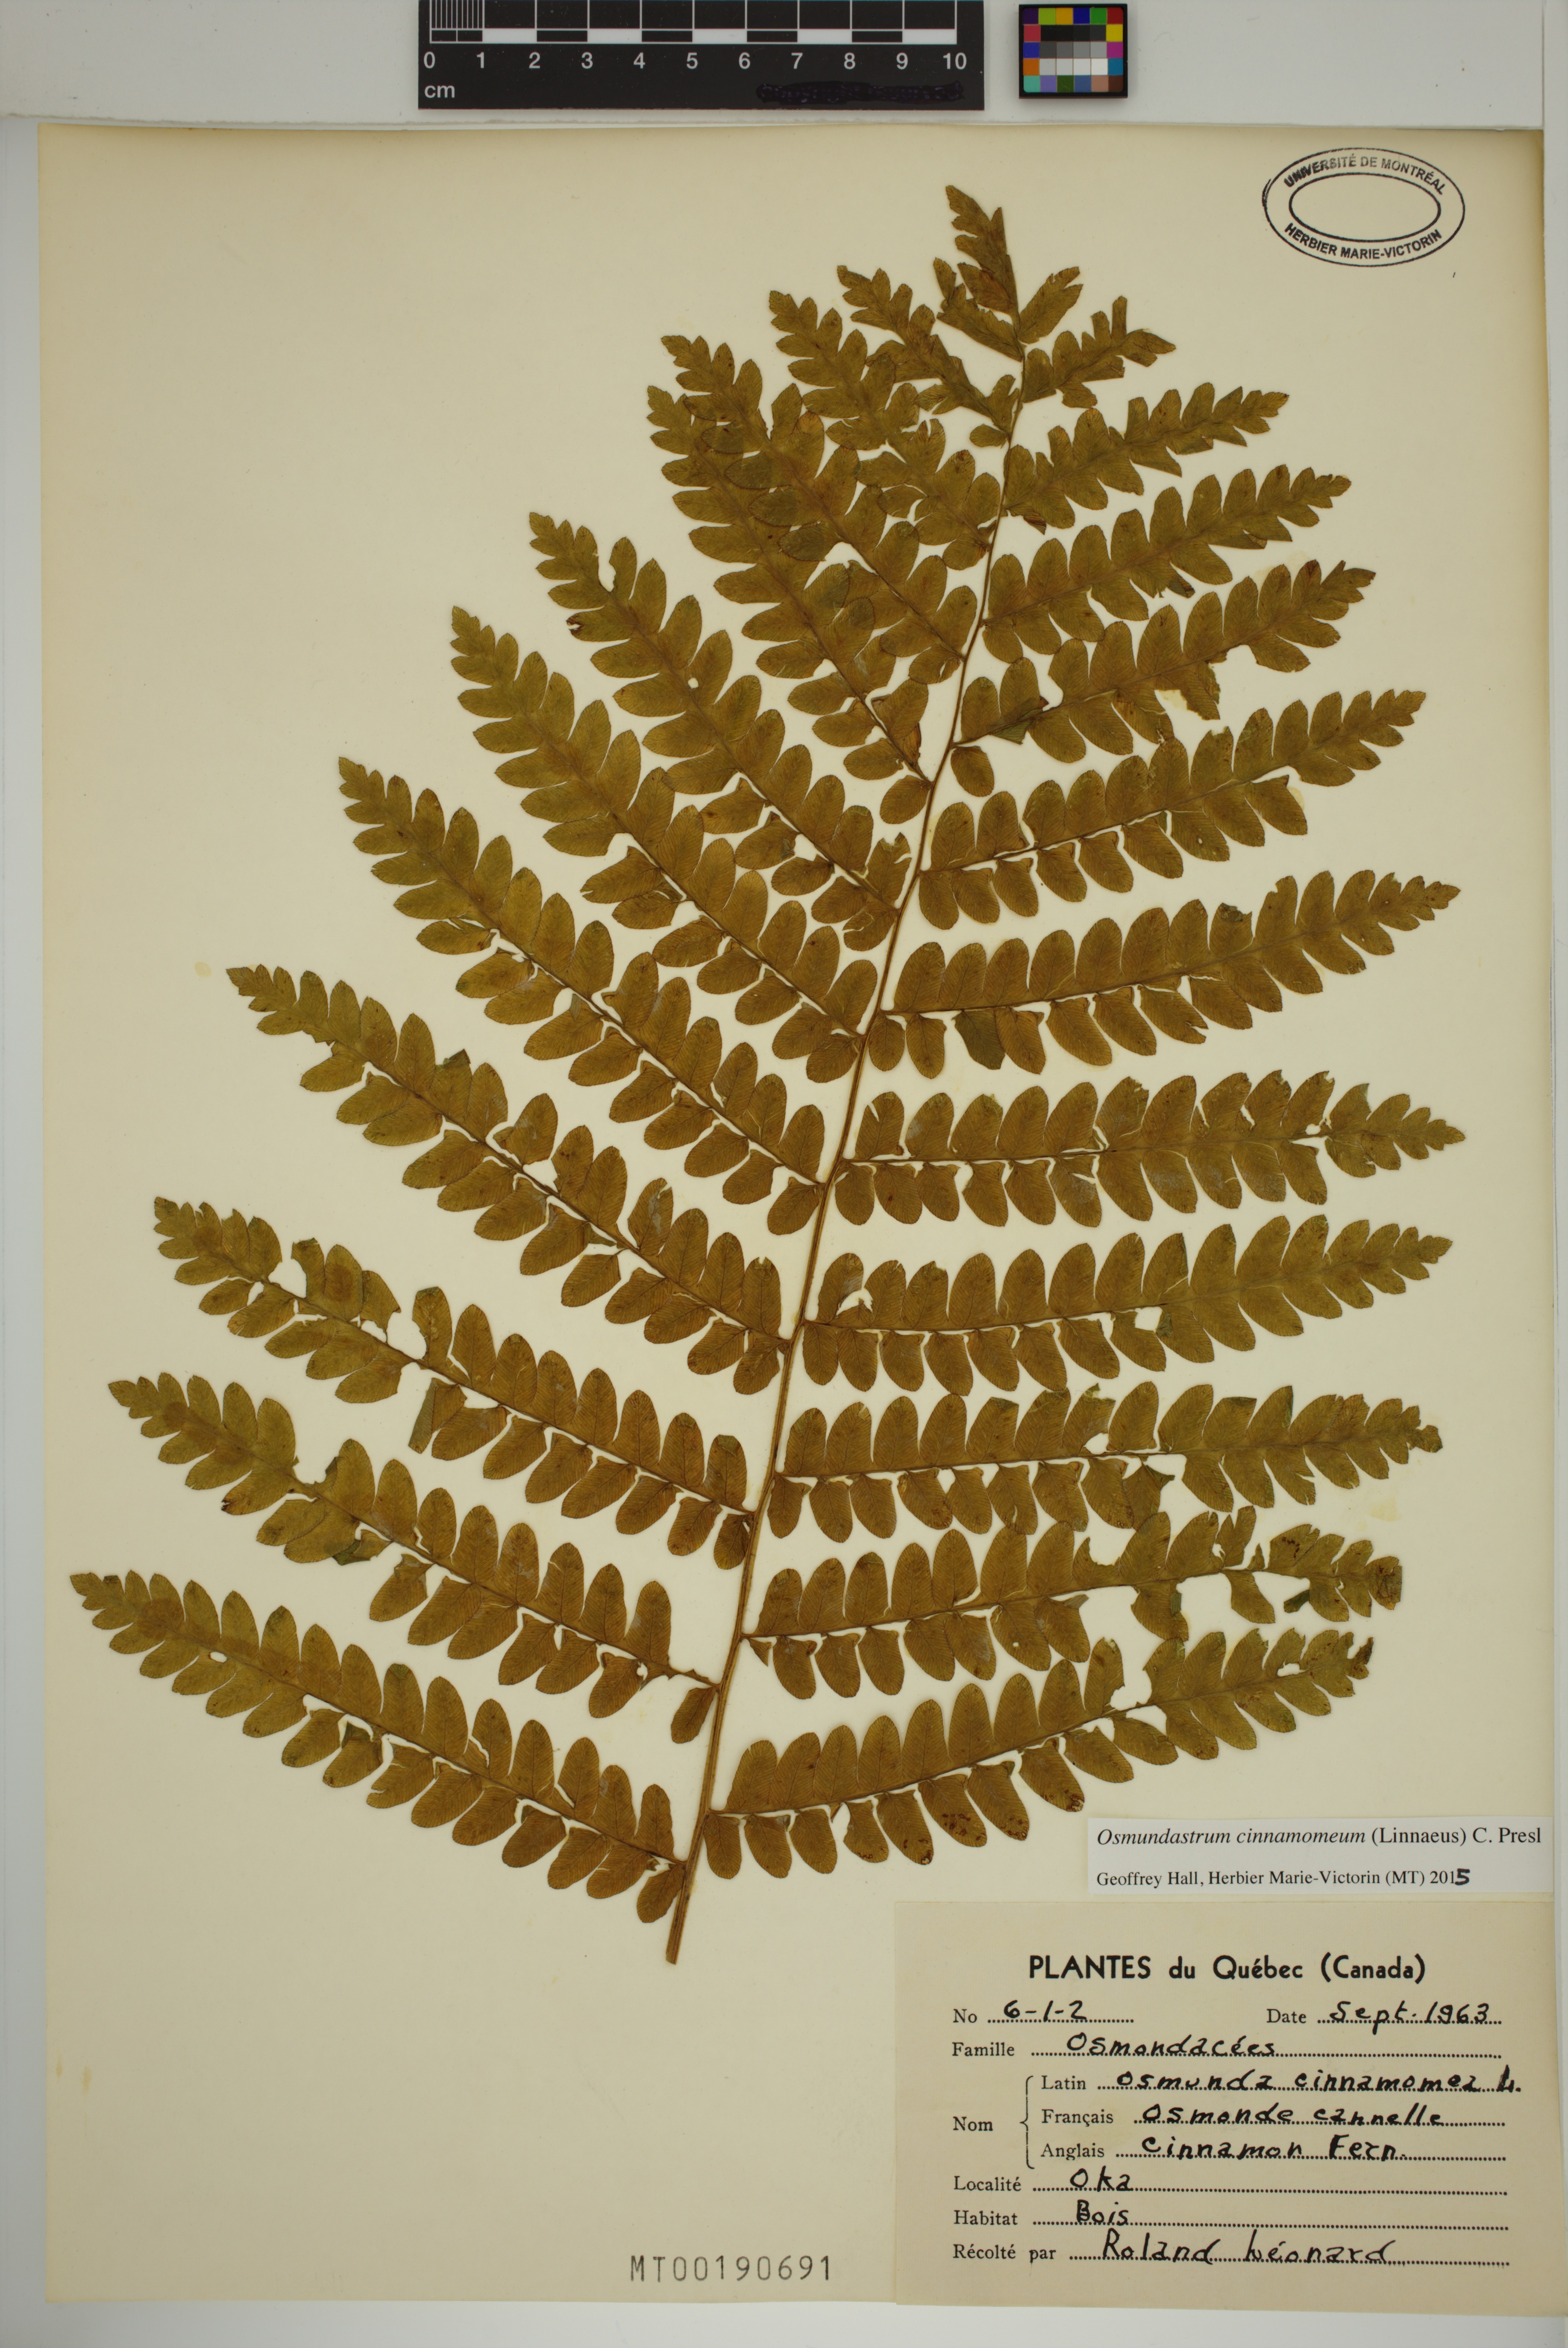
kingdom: Plantae
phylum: Tracheophyta
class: Polypodiopsida
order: Osmundales
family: Osmundaceae
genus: Osmundastrum
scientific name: Osmundastrum cinnamomeum
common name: Cinnamon fern
